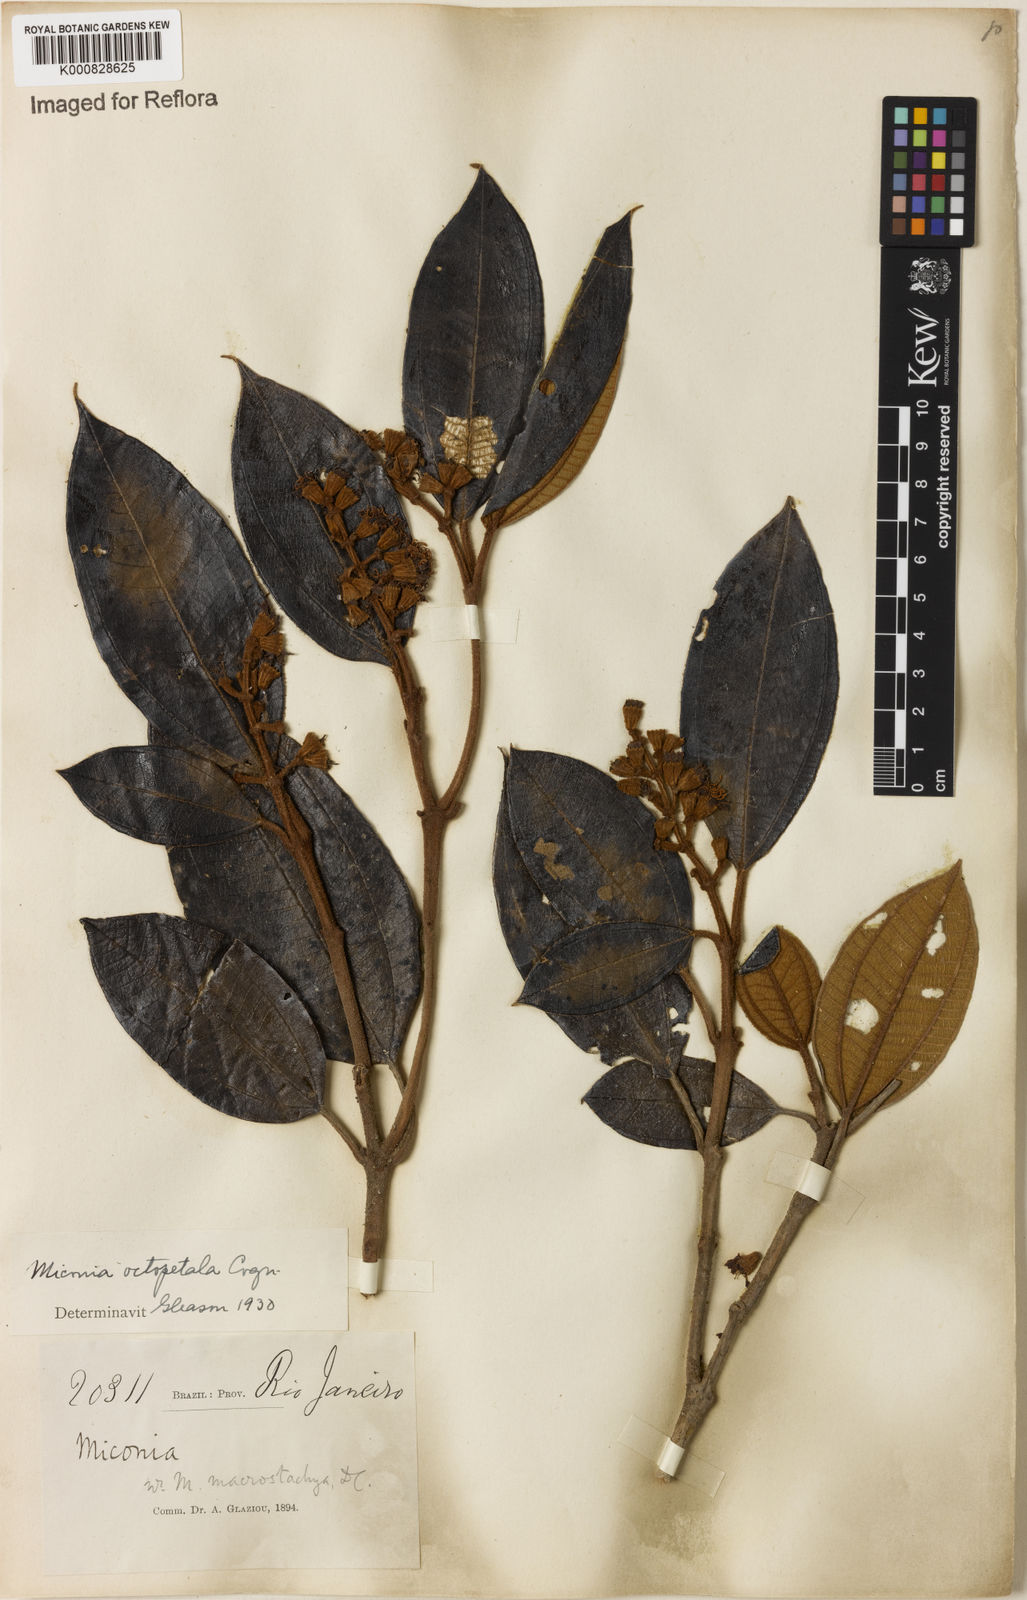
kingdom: Plantae
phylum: Tracheophyta
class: Magnoliopsida
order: Myrtales
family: Melastomataceae
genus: Miconia
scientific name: Miconia octopetala
